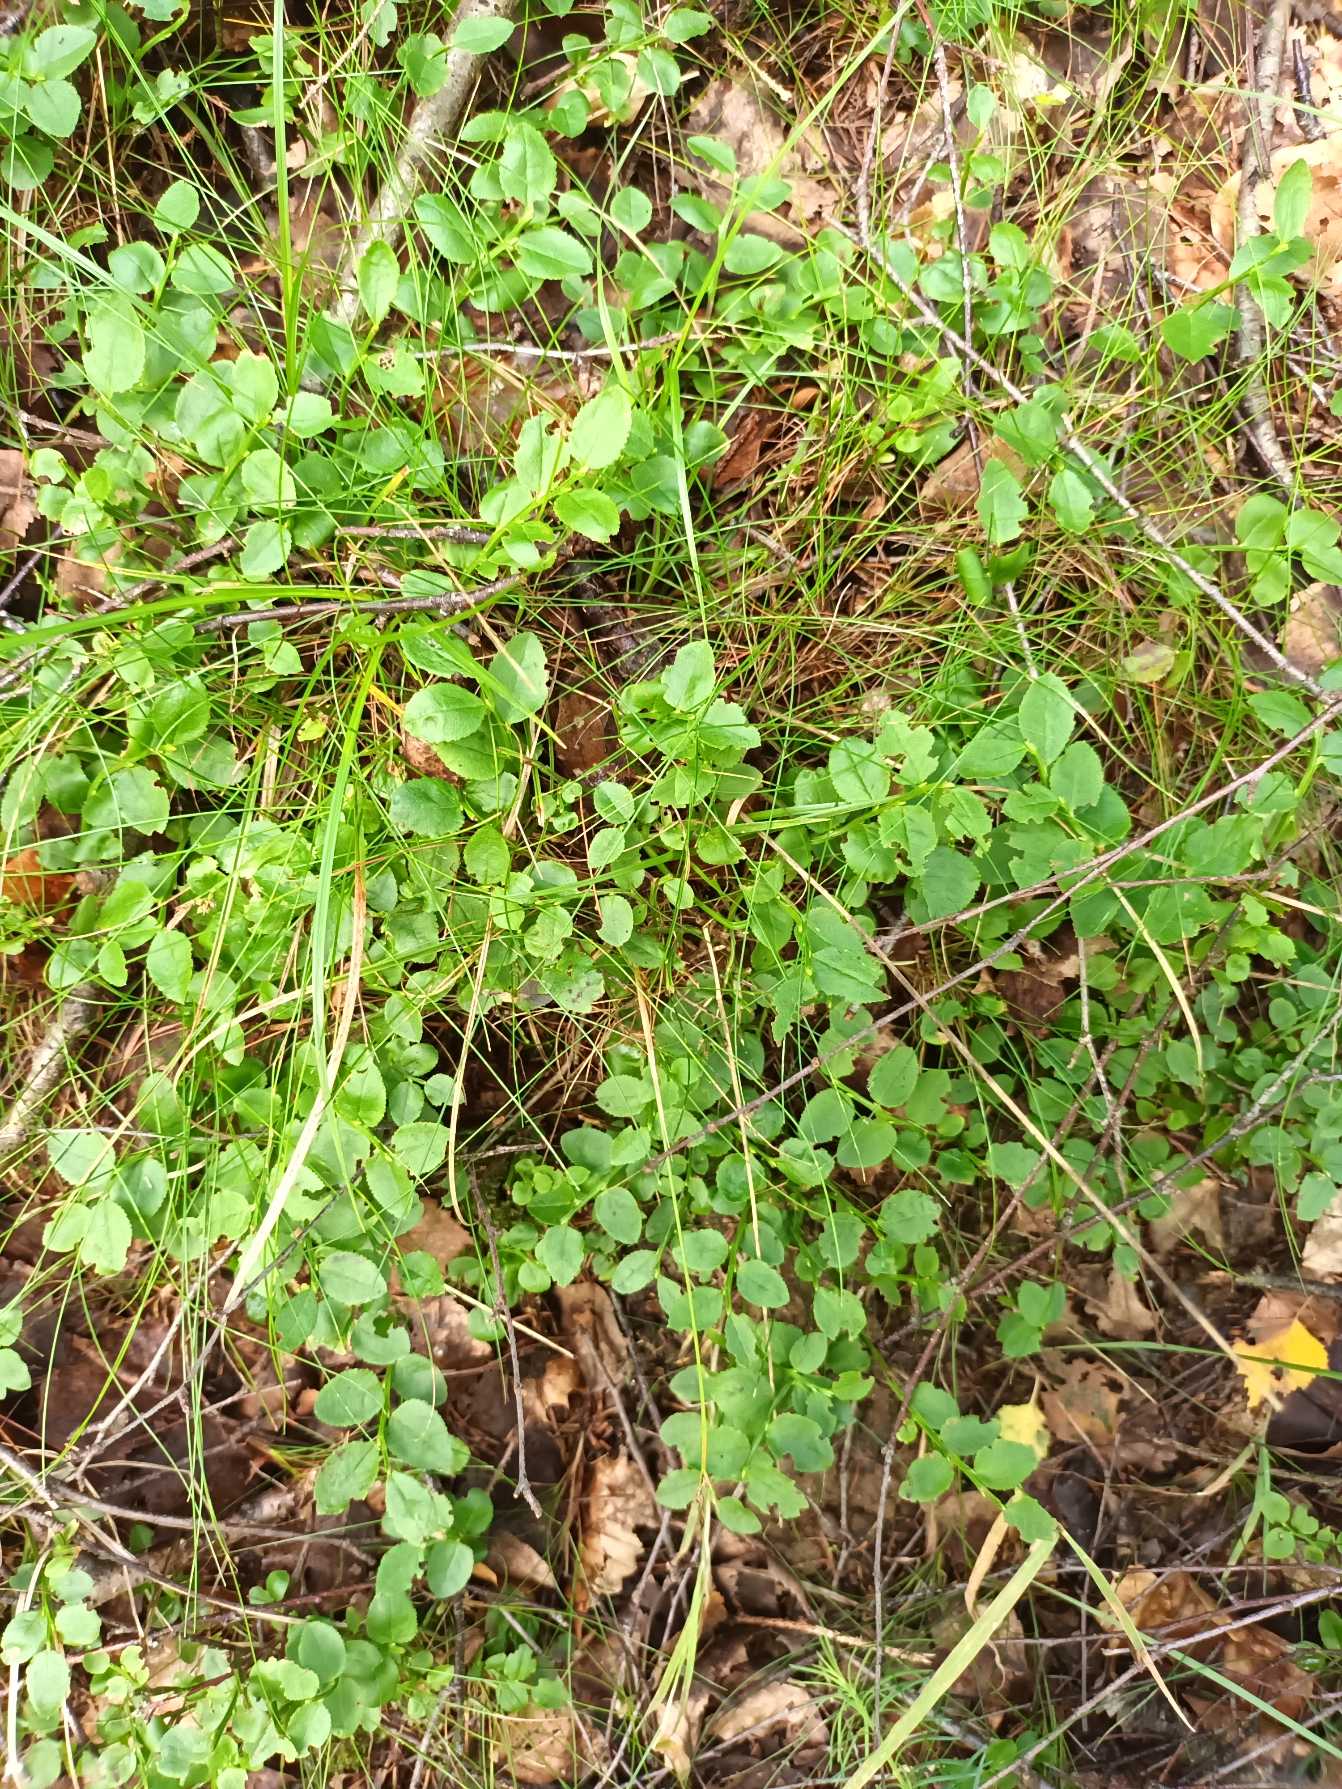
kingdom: Plantae
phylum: Tracheophyta
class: Magnoliopsida
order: Ericales
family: Ericaceae
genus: Vaccinium
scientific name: Vaccinium myrtillus
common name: Blåbær
